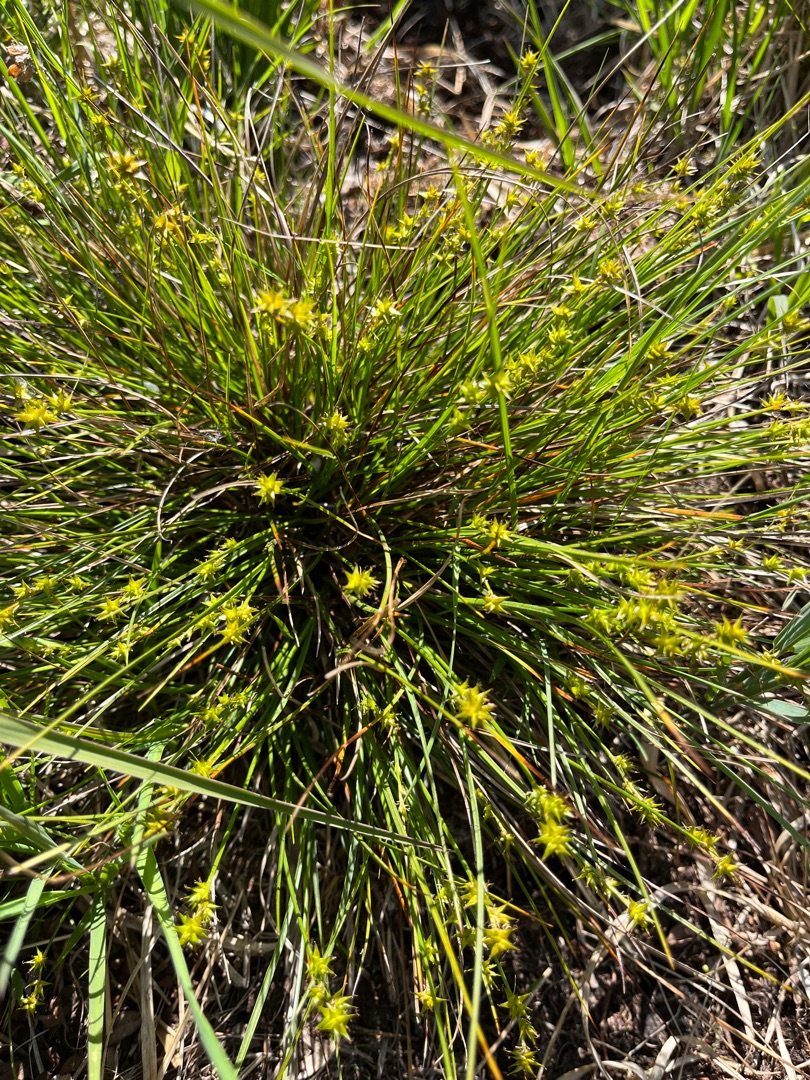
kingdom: Plantae
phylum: Tracheophyta
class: Liliopsida
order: Poales
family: Cyperaceae
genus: Carex
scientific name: Carex echinata
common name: Stjerne-star
